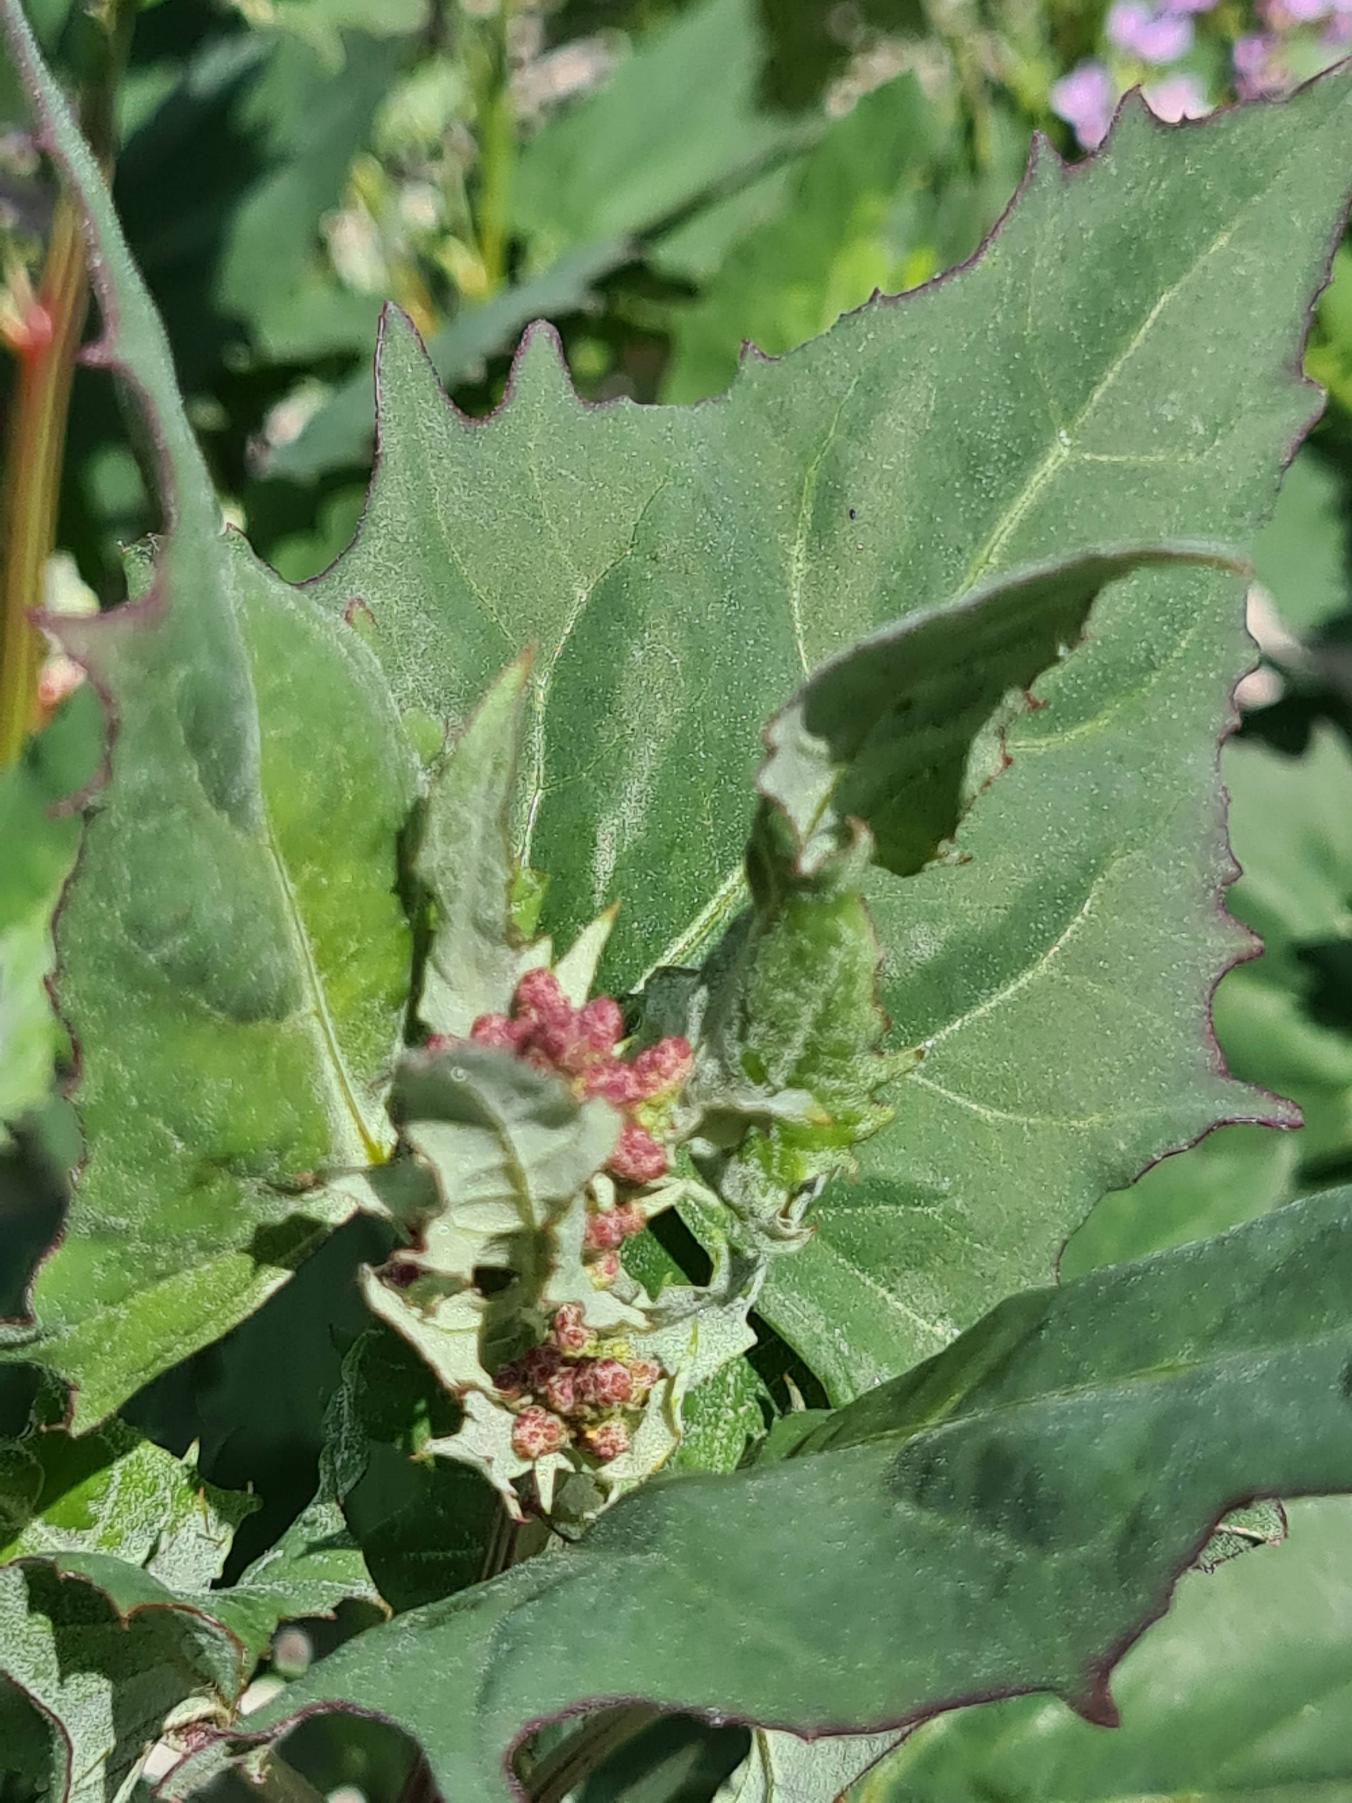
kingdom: Plantae
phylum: Tracheophyta
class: Magnoliopsida
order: Caryophyllales
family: Amaranthaceae
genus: Atriplex
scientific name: Atriplex prostrata
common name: Spyd-mælde
